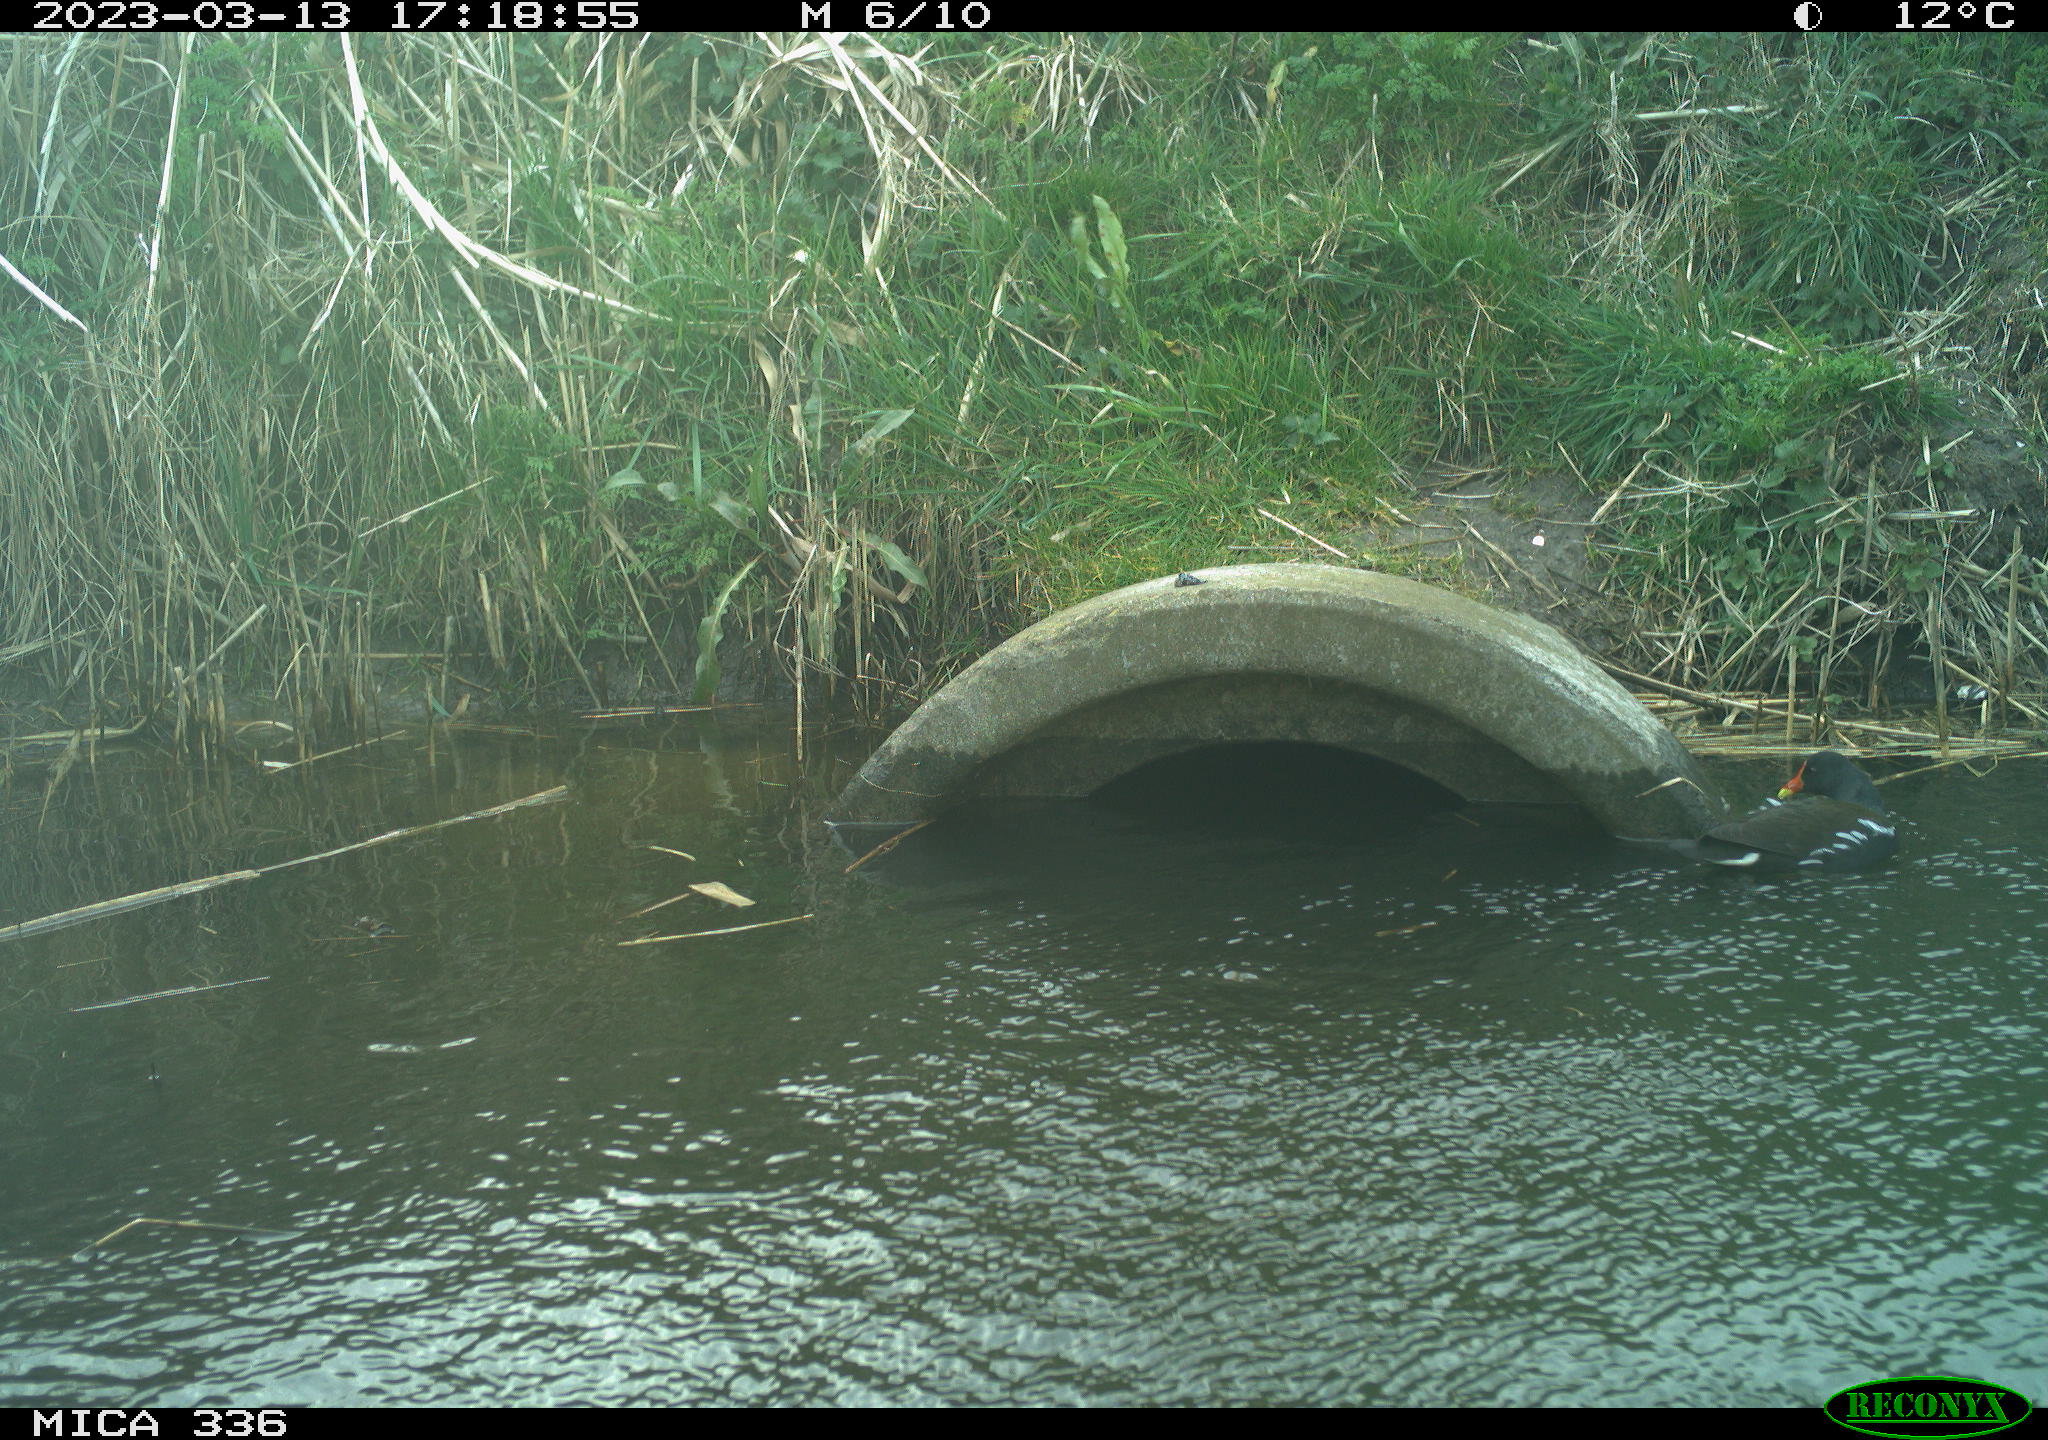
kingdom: Animalia
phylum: Chordata
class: Aves
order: Gruiformes
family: Rallidae
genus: Gallinula
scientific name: Gallinula chloropus
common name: Common moorhen
